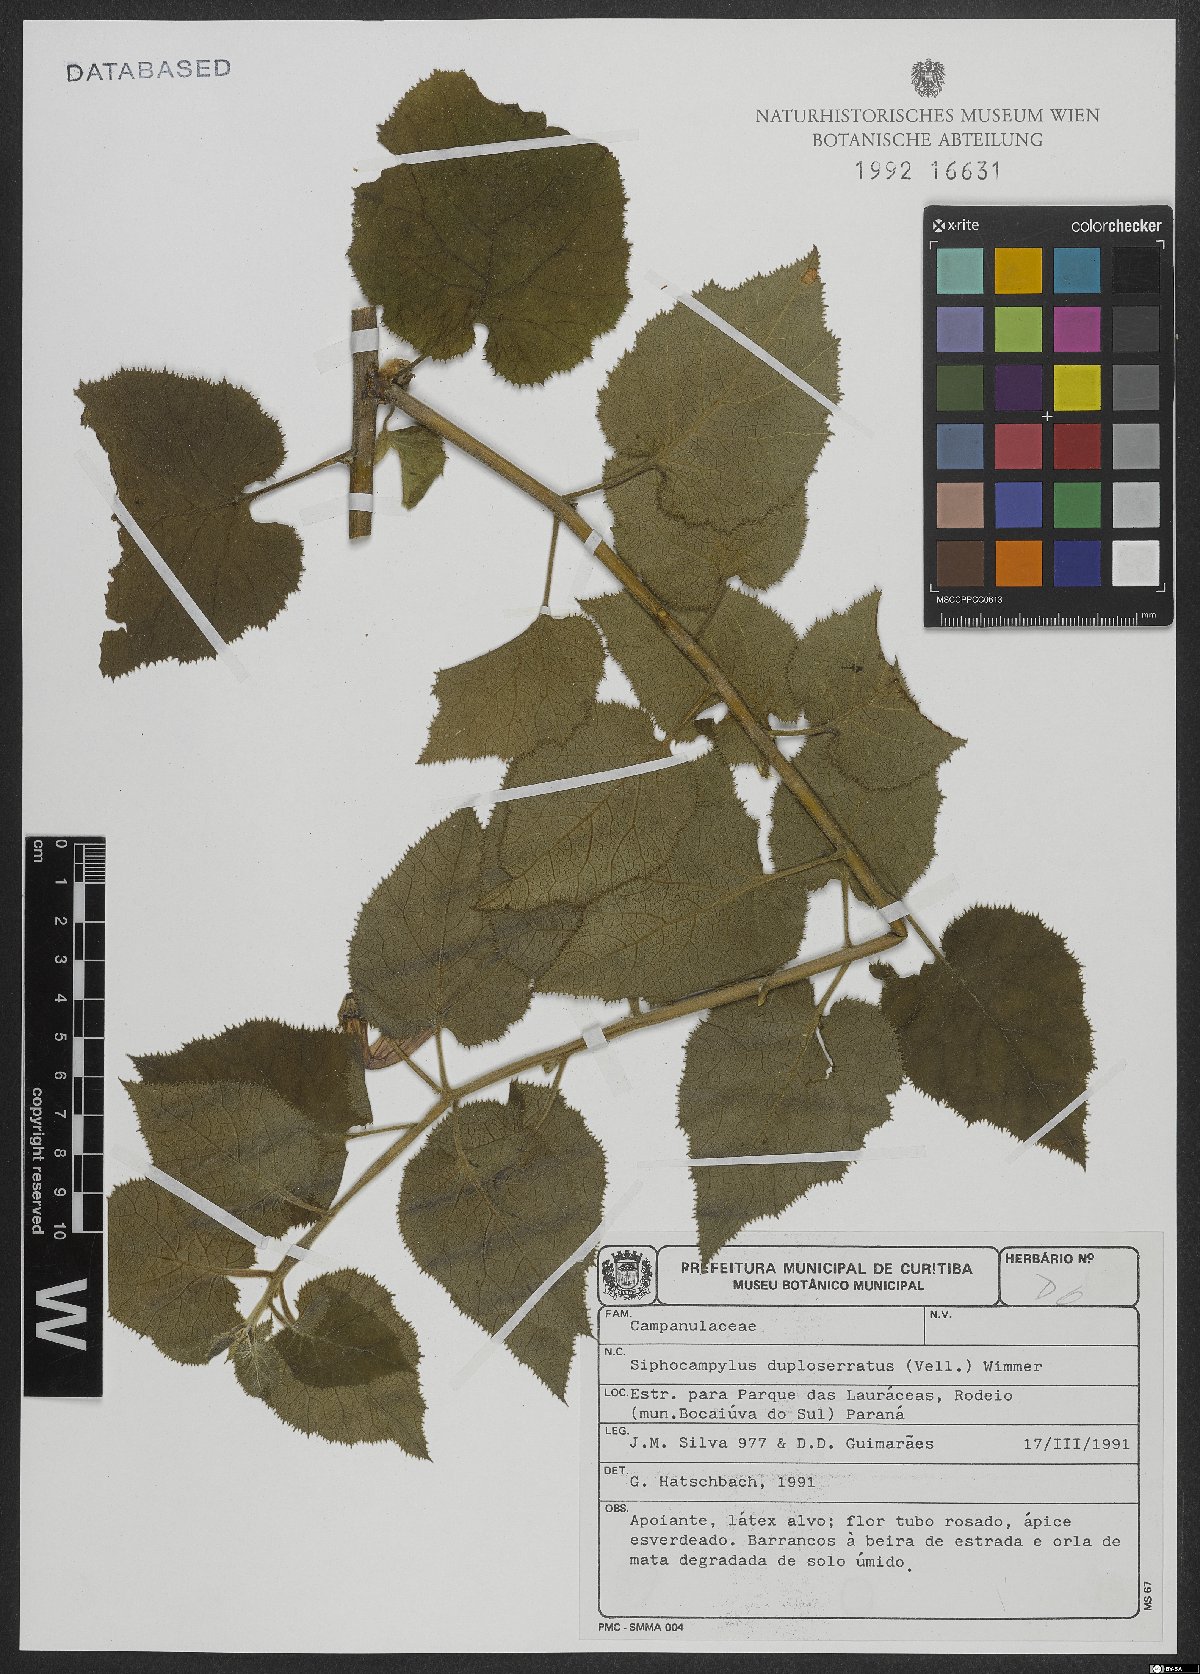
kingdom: Plantae
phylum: Tracheophyta
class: Magnoliopsida
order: Asterales
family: Campanulaceae
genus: Siphocampylus
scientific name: Siphocampylus duploserratus
